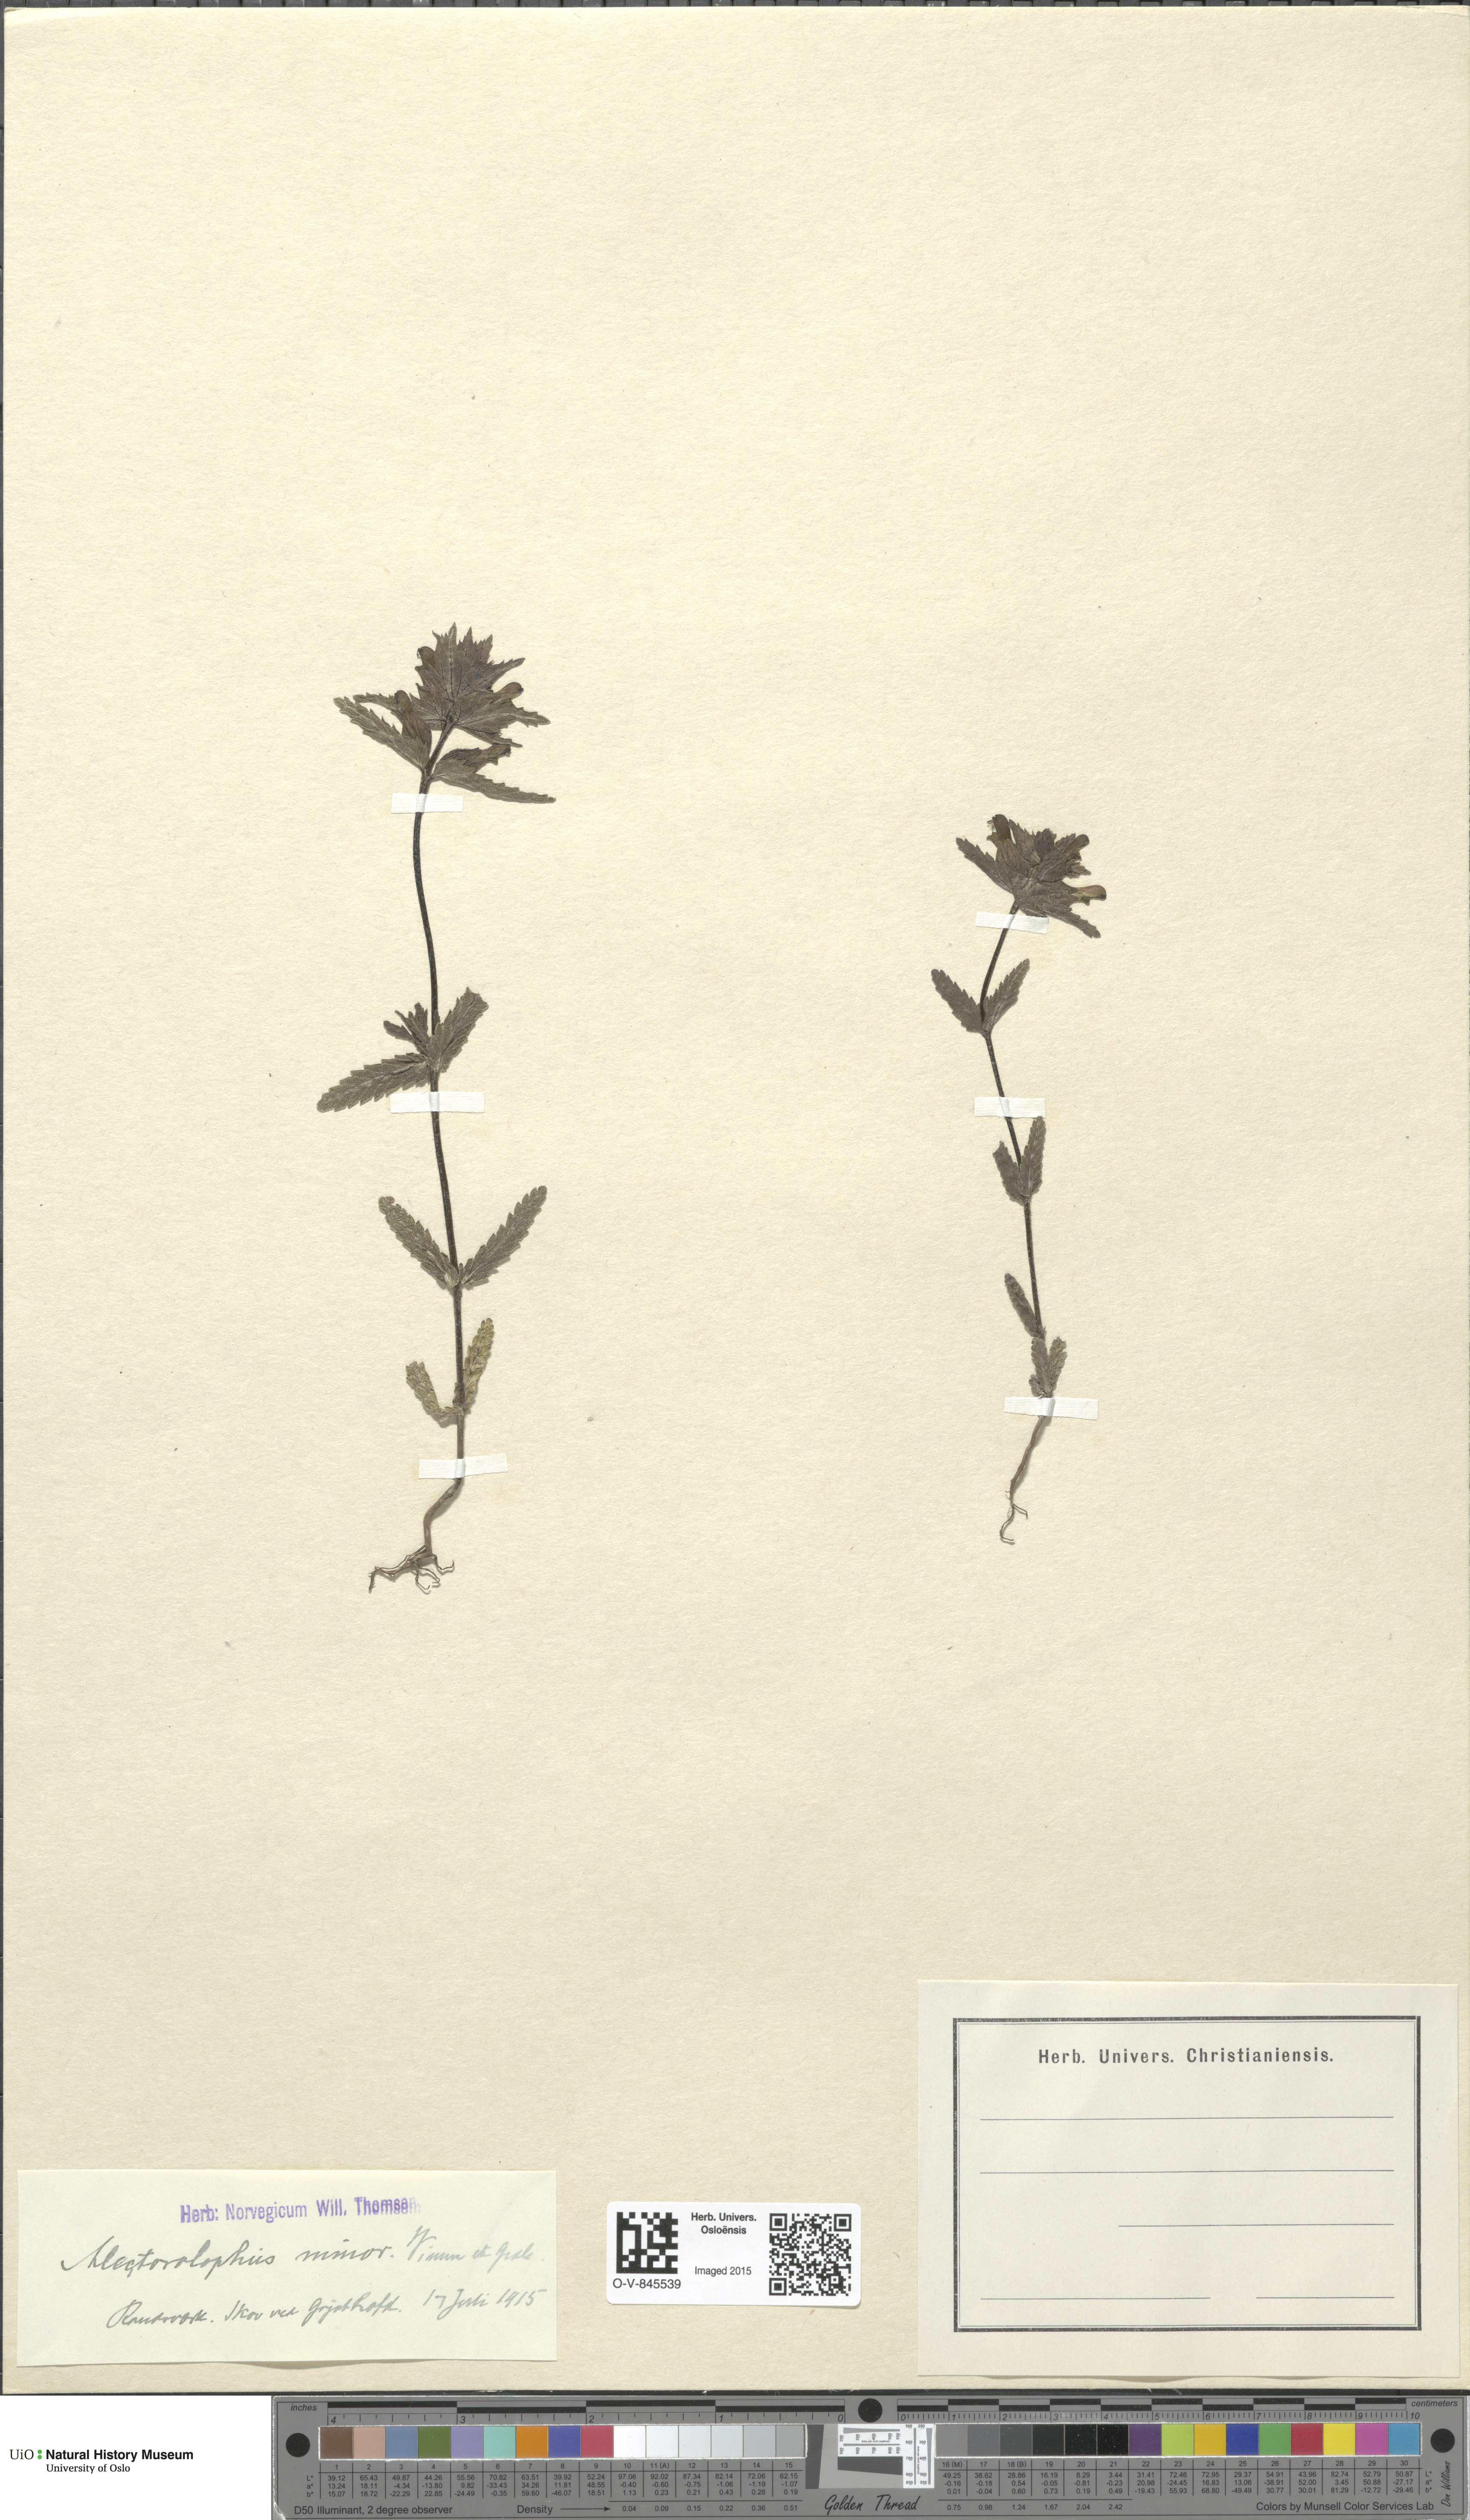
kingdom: Plantae
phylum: Tracheophyta
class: Magnoliopsida
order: Lamiales
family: Orobanchaceae
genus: Rhinanthus
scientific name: Rhinanthus minor
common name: Yellow-rattle
